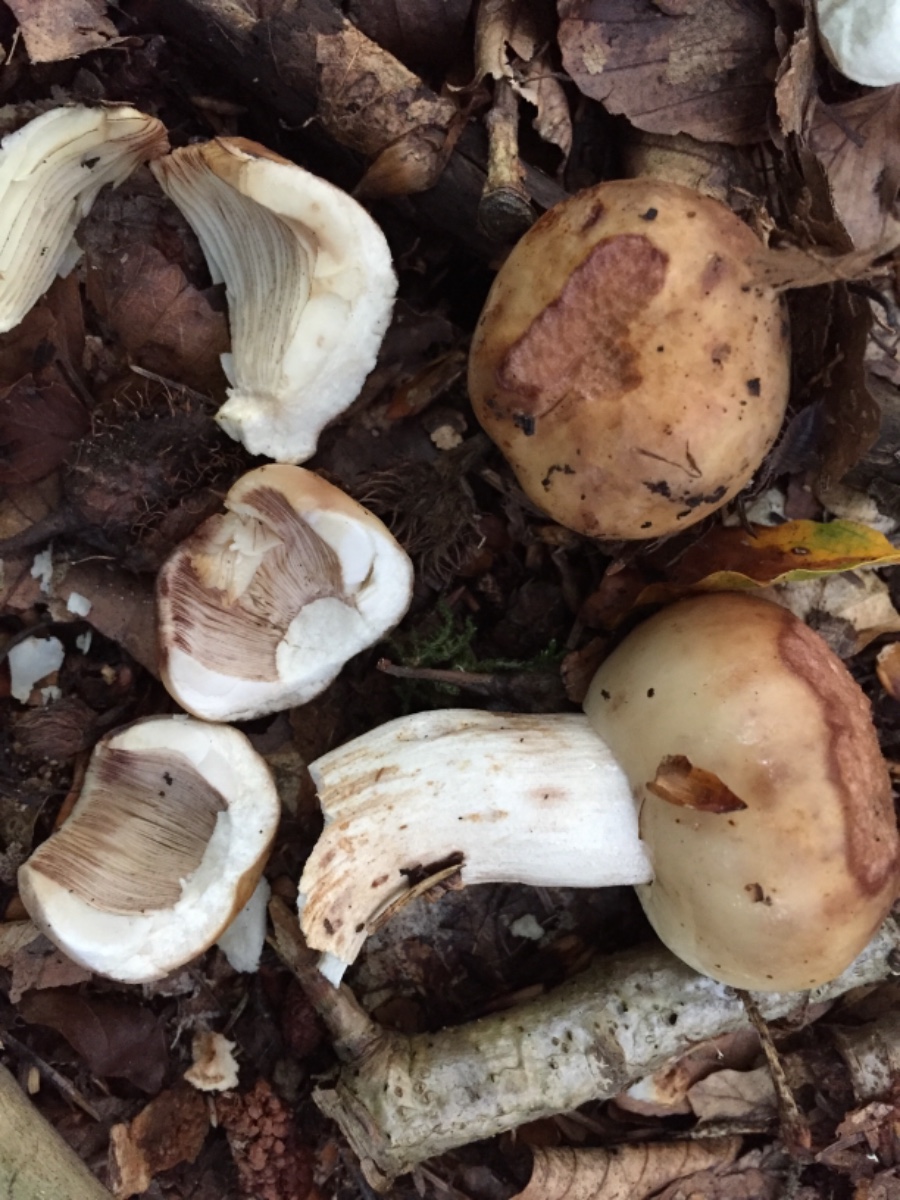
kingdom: Fungi
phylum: Basidiomycota
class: Agaricomycetes
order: Russulales
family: Russulaceae
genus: Russula
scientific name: Russula illota
